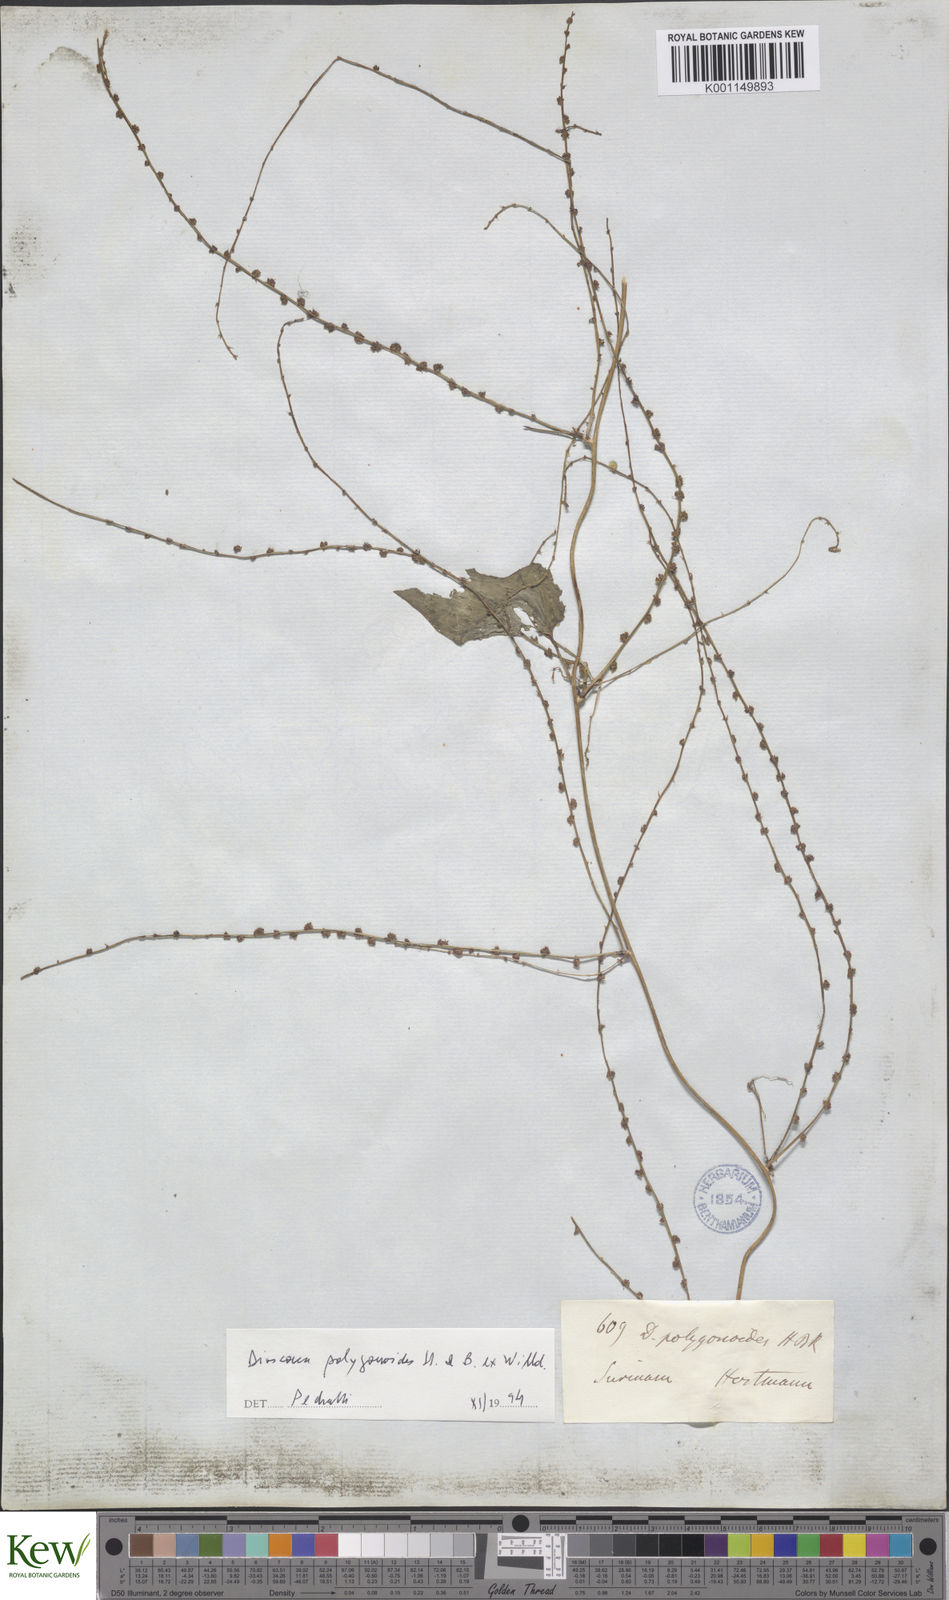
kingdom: Plantae
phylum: Tracheophyta
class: Liliopsida
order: Dioscoreales
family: Dioscoreaceae
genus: Dioscorea
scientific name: Dioscorea polygonoides
